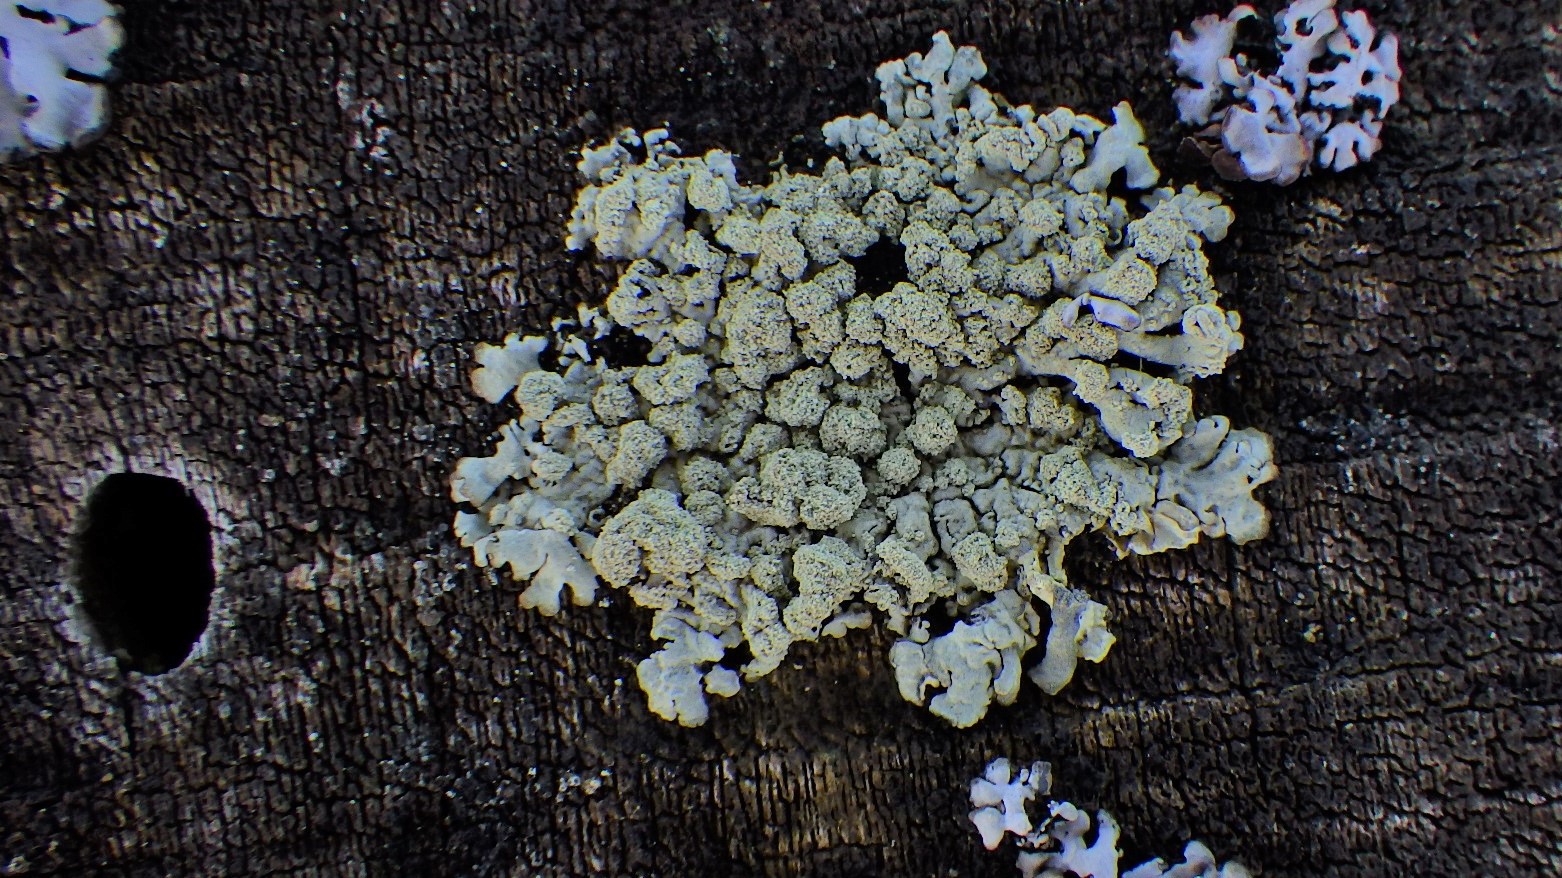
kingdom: Fungi
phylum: Ascomycota
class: Lecanoromycetes
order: Lecanorales
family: Parmeliaceae
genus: Parmeliopsis
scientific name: Parmeliopsis ambigua
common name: gul stolpelav
